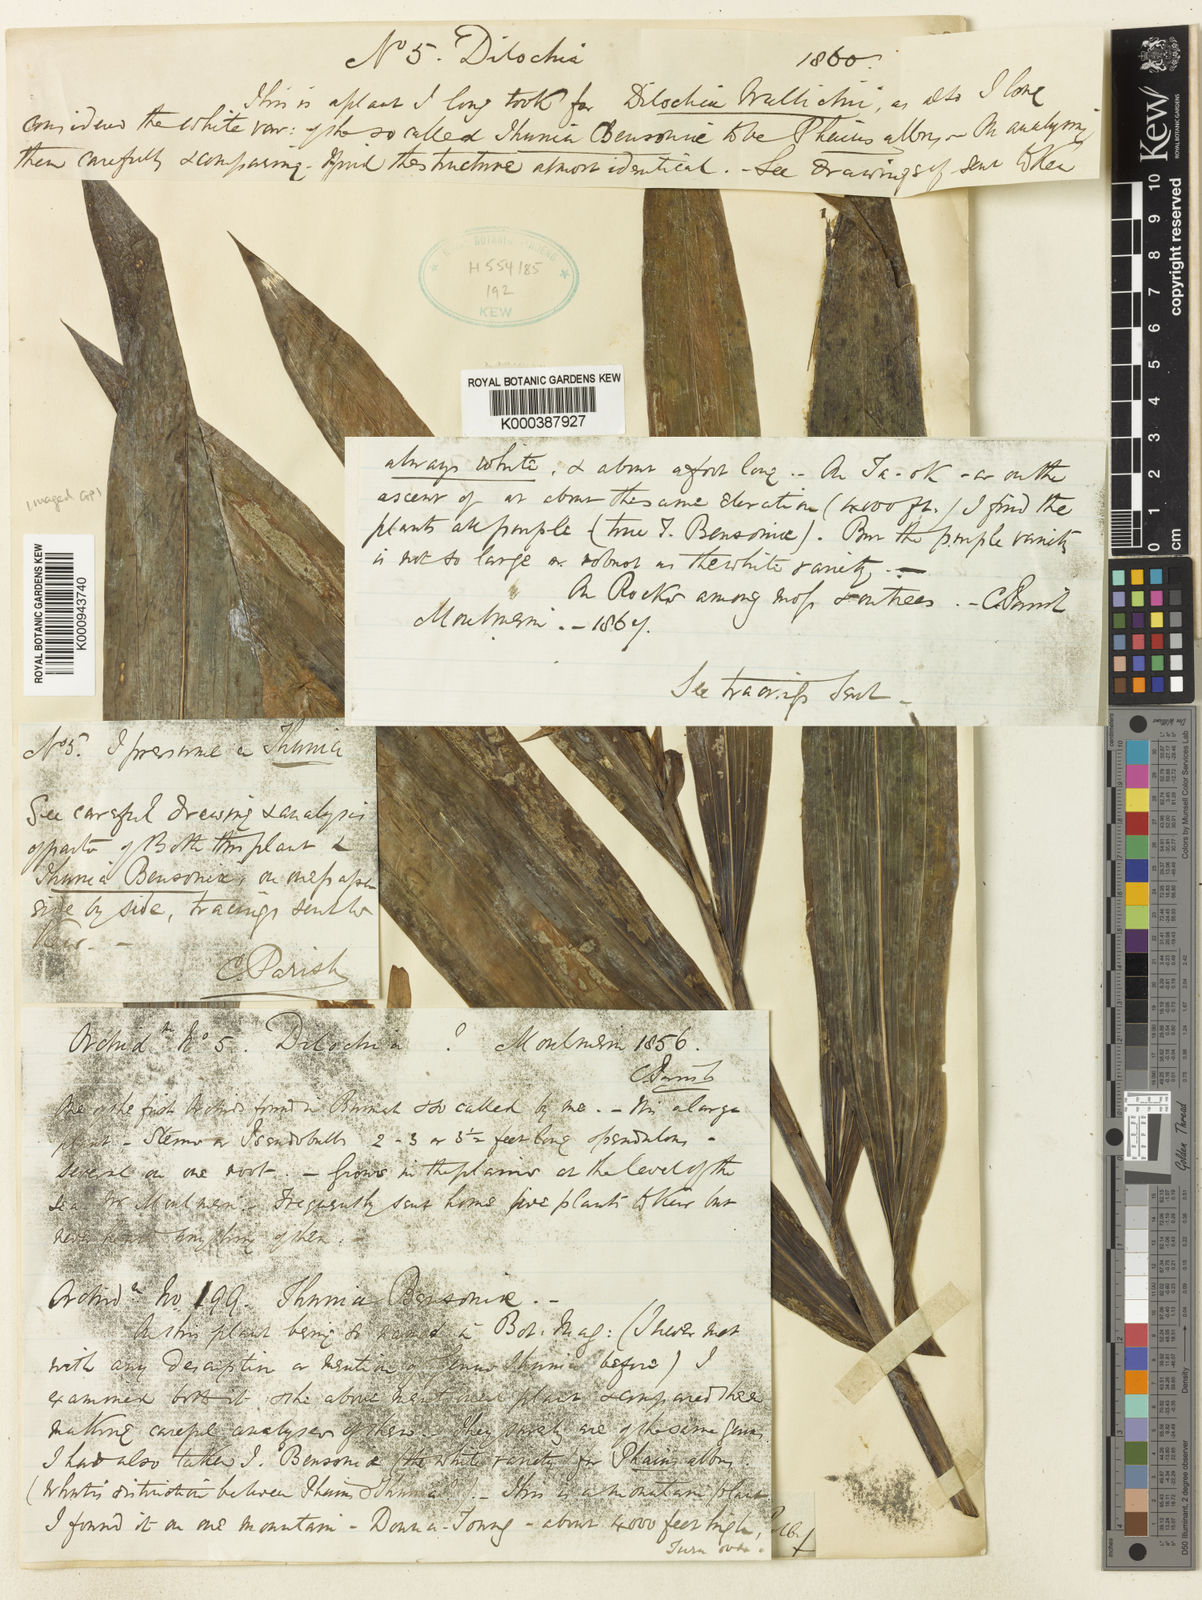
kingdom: Plantae
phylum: Tracheophyta
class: Liliopsida
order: Asparagales
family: Orchidaceae
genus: Thunia
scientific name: Thunia pulchra
